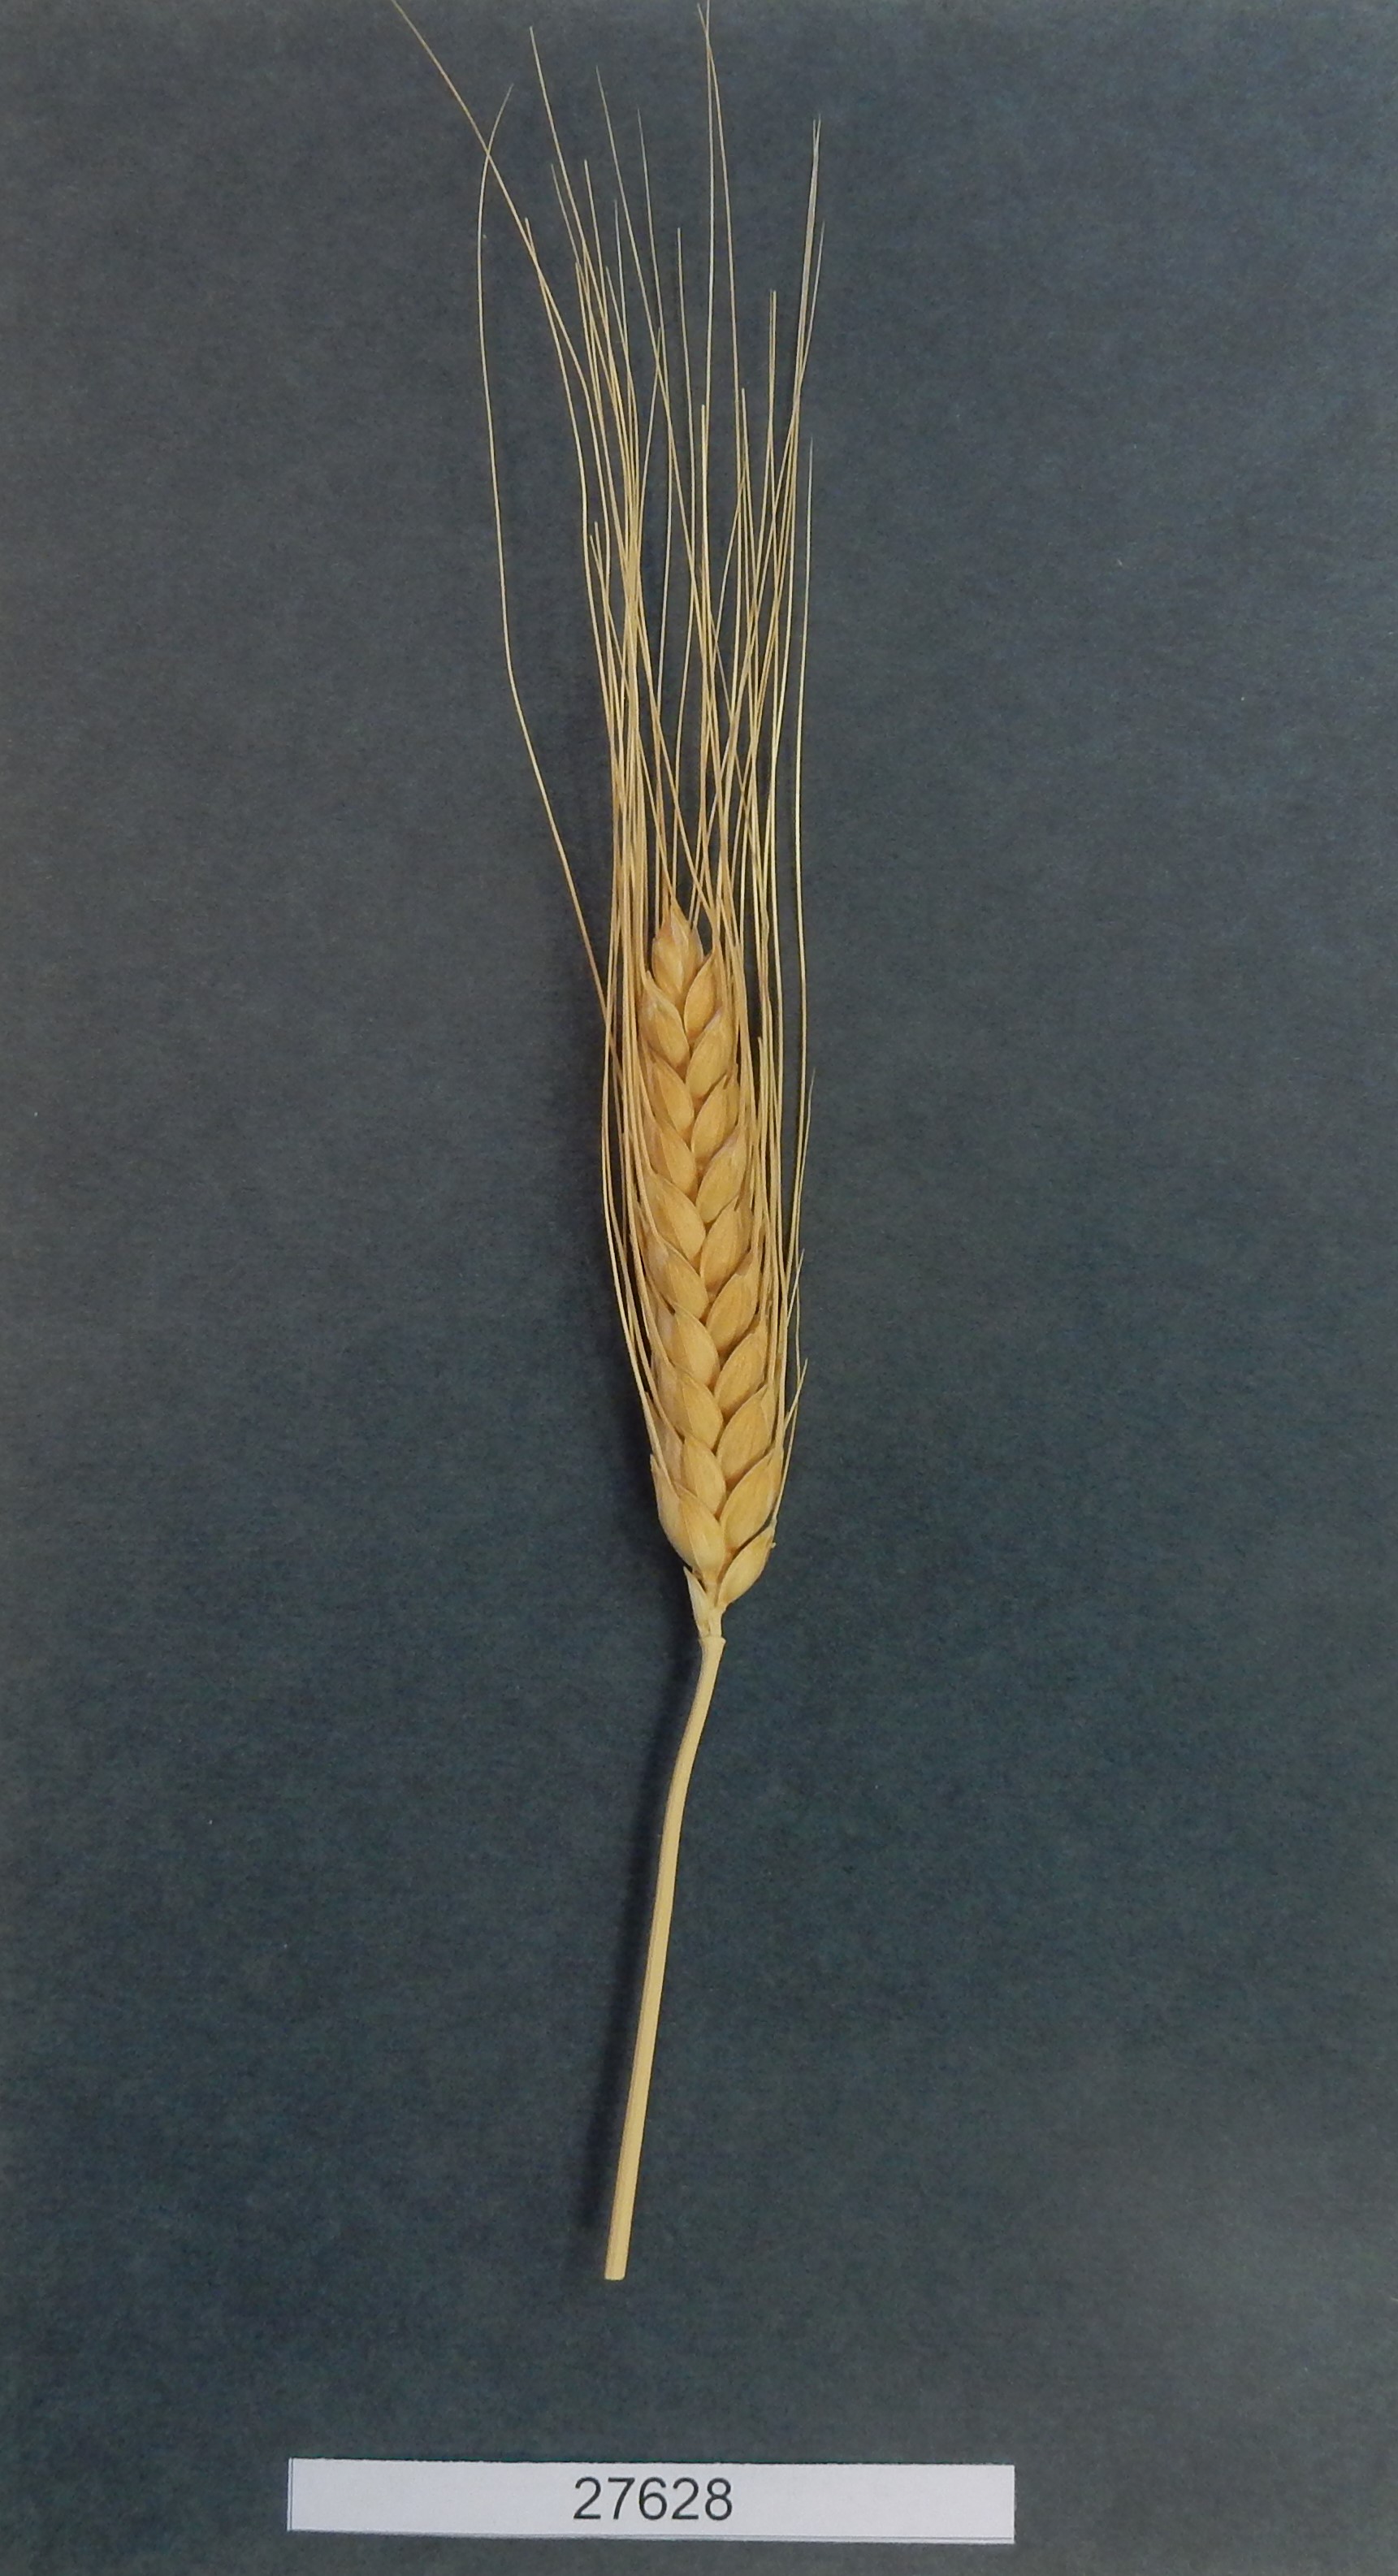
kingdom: Plantae
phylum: Tracheophyta
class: Liliopsida
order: Poales
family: Poaceae
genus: Triticum
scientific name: Triticum aestivum
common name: Common wheat
